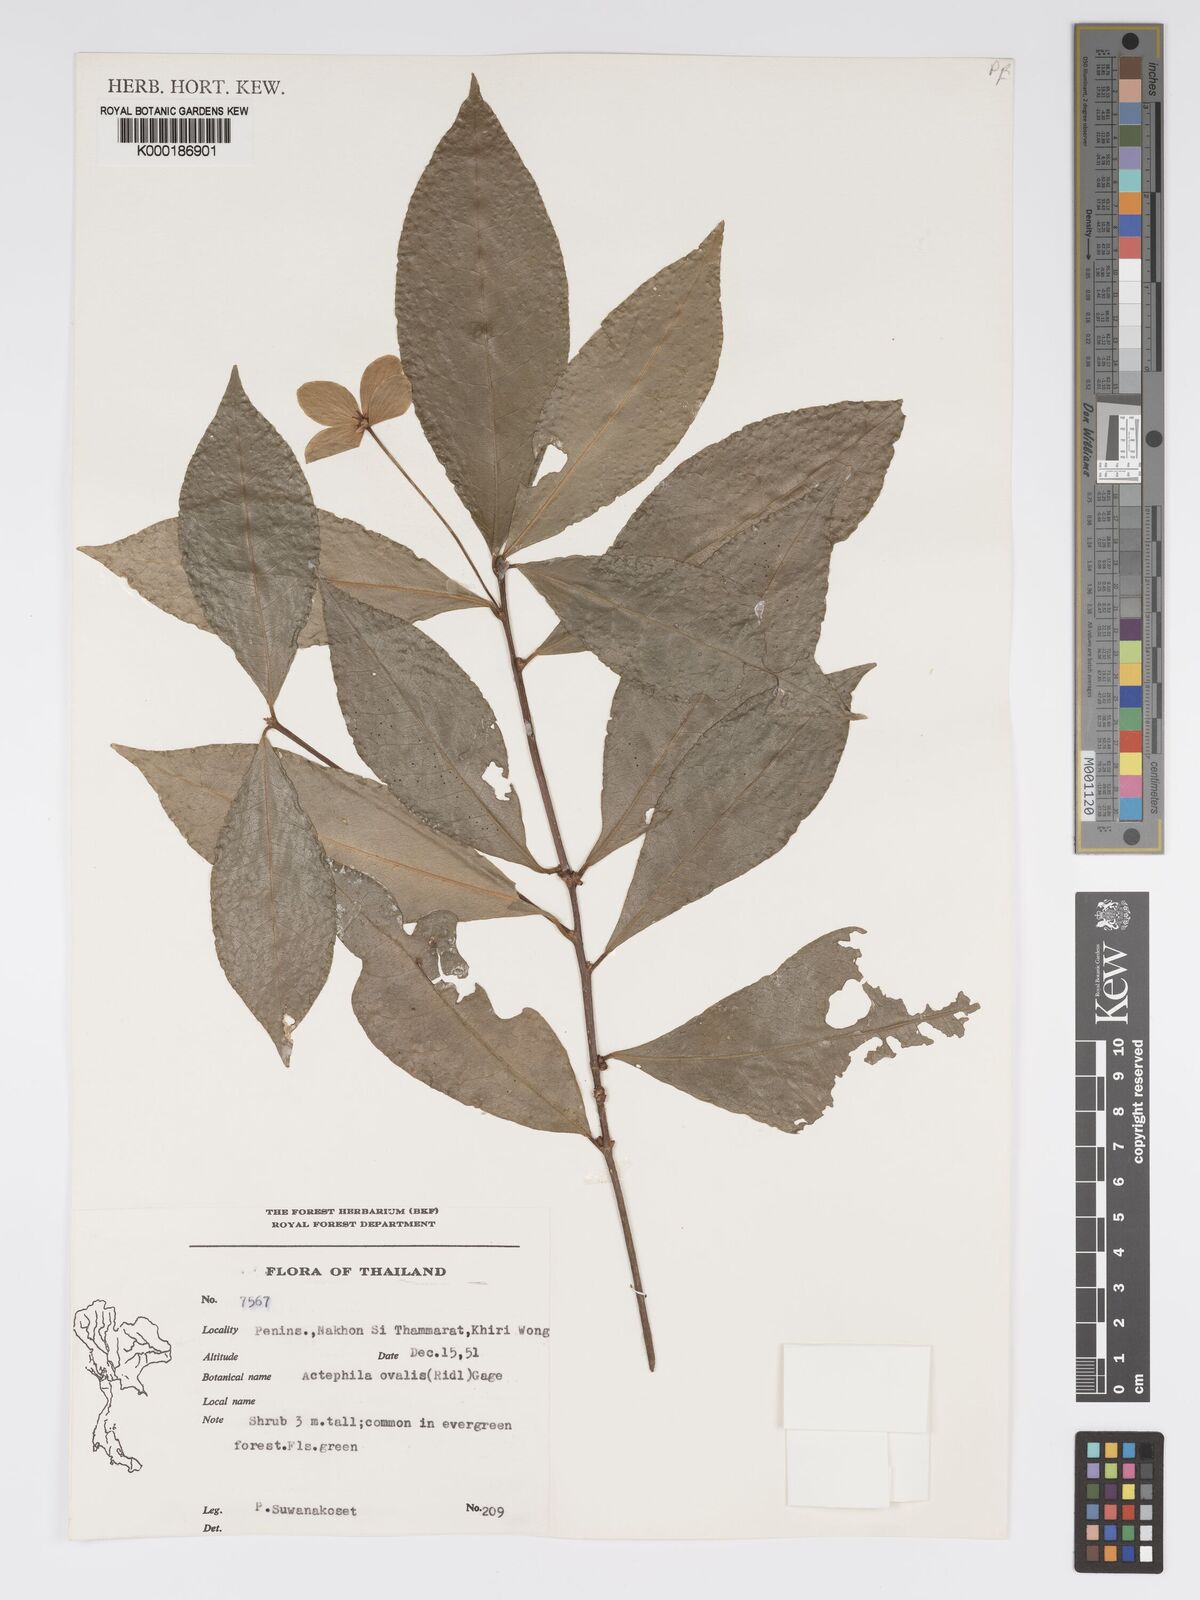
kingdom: Plantae
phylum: Tracheophyta
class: Magnoliopsida
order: Malpighiales
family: Phyllanthaceae
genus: Actephila
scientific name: Actephila ovalis
